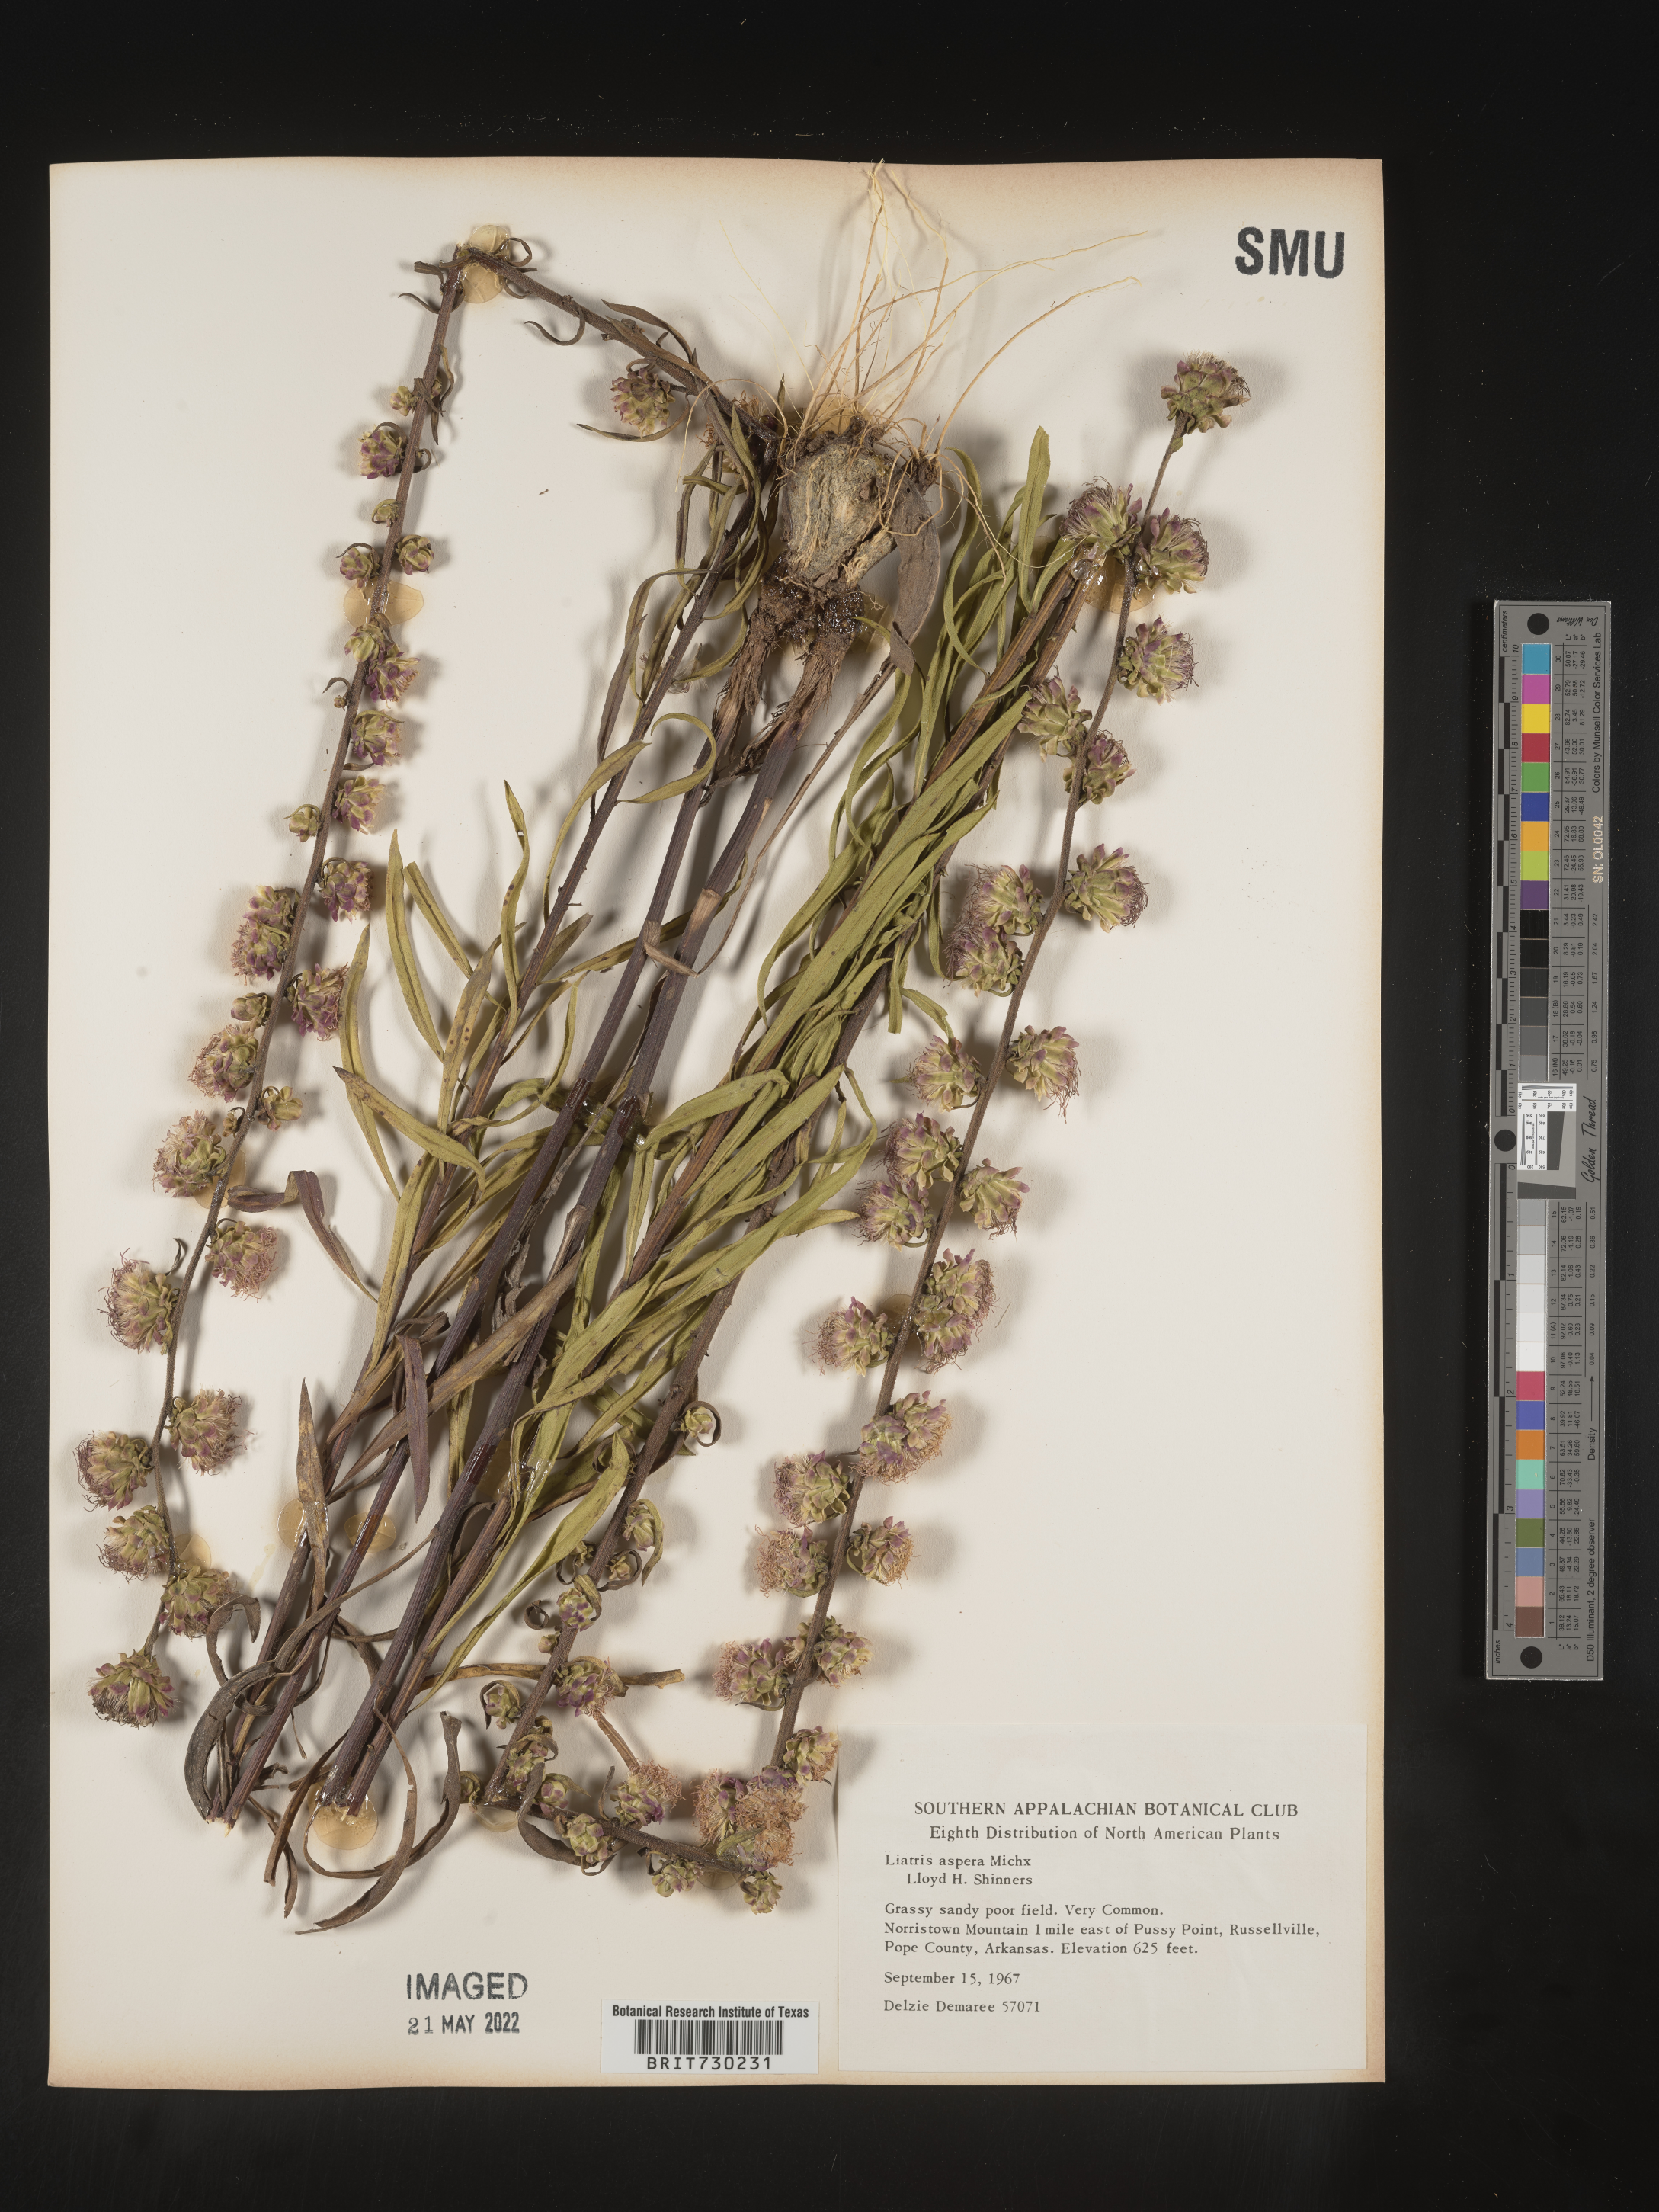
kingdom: Plantae
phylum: Tracheophyta
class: Magnoliopsida
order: Asterales
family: Asteraceae
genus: Liatris
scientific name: Liatris aspera
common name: Lacerate blazing-star
